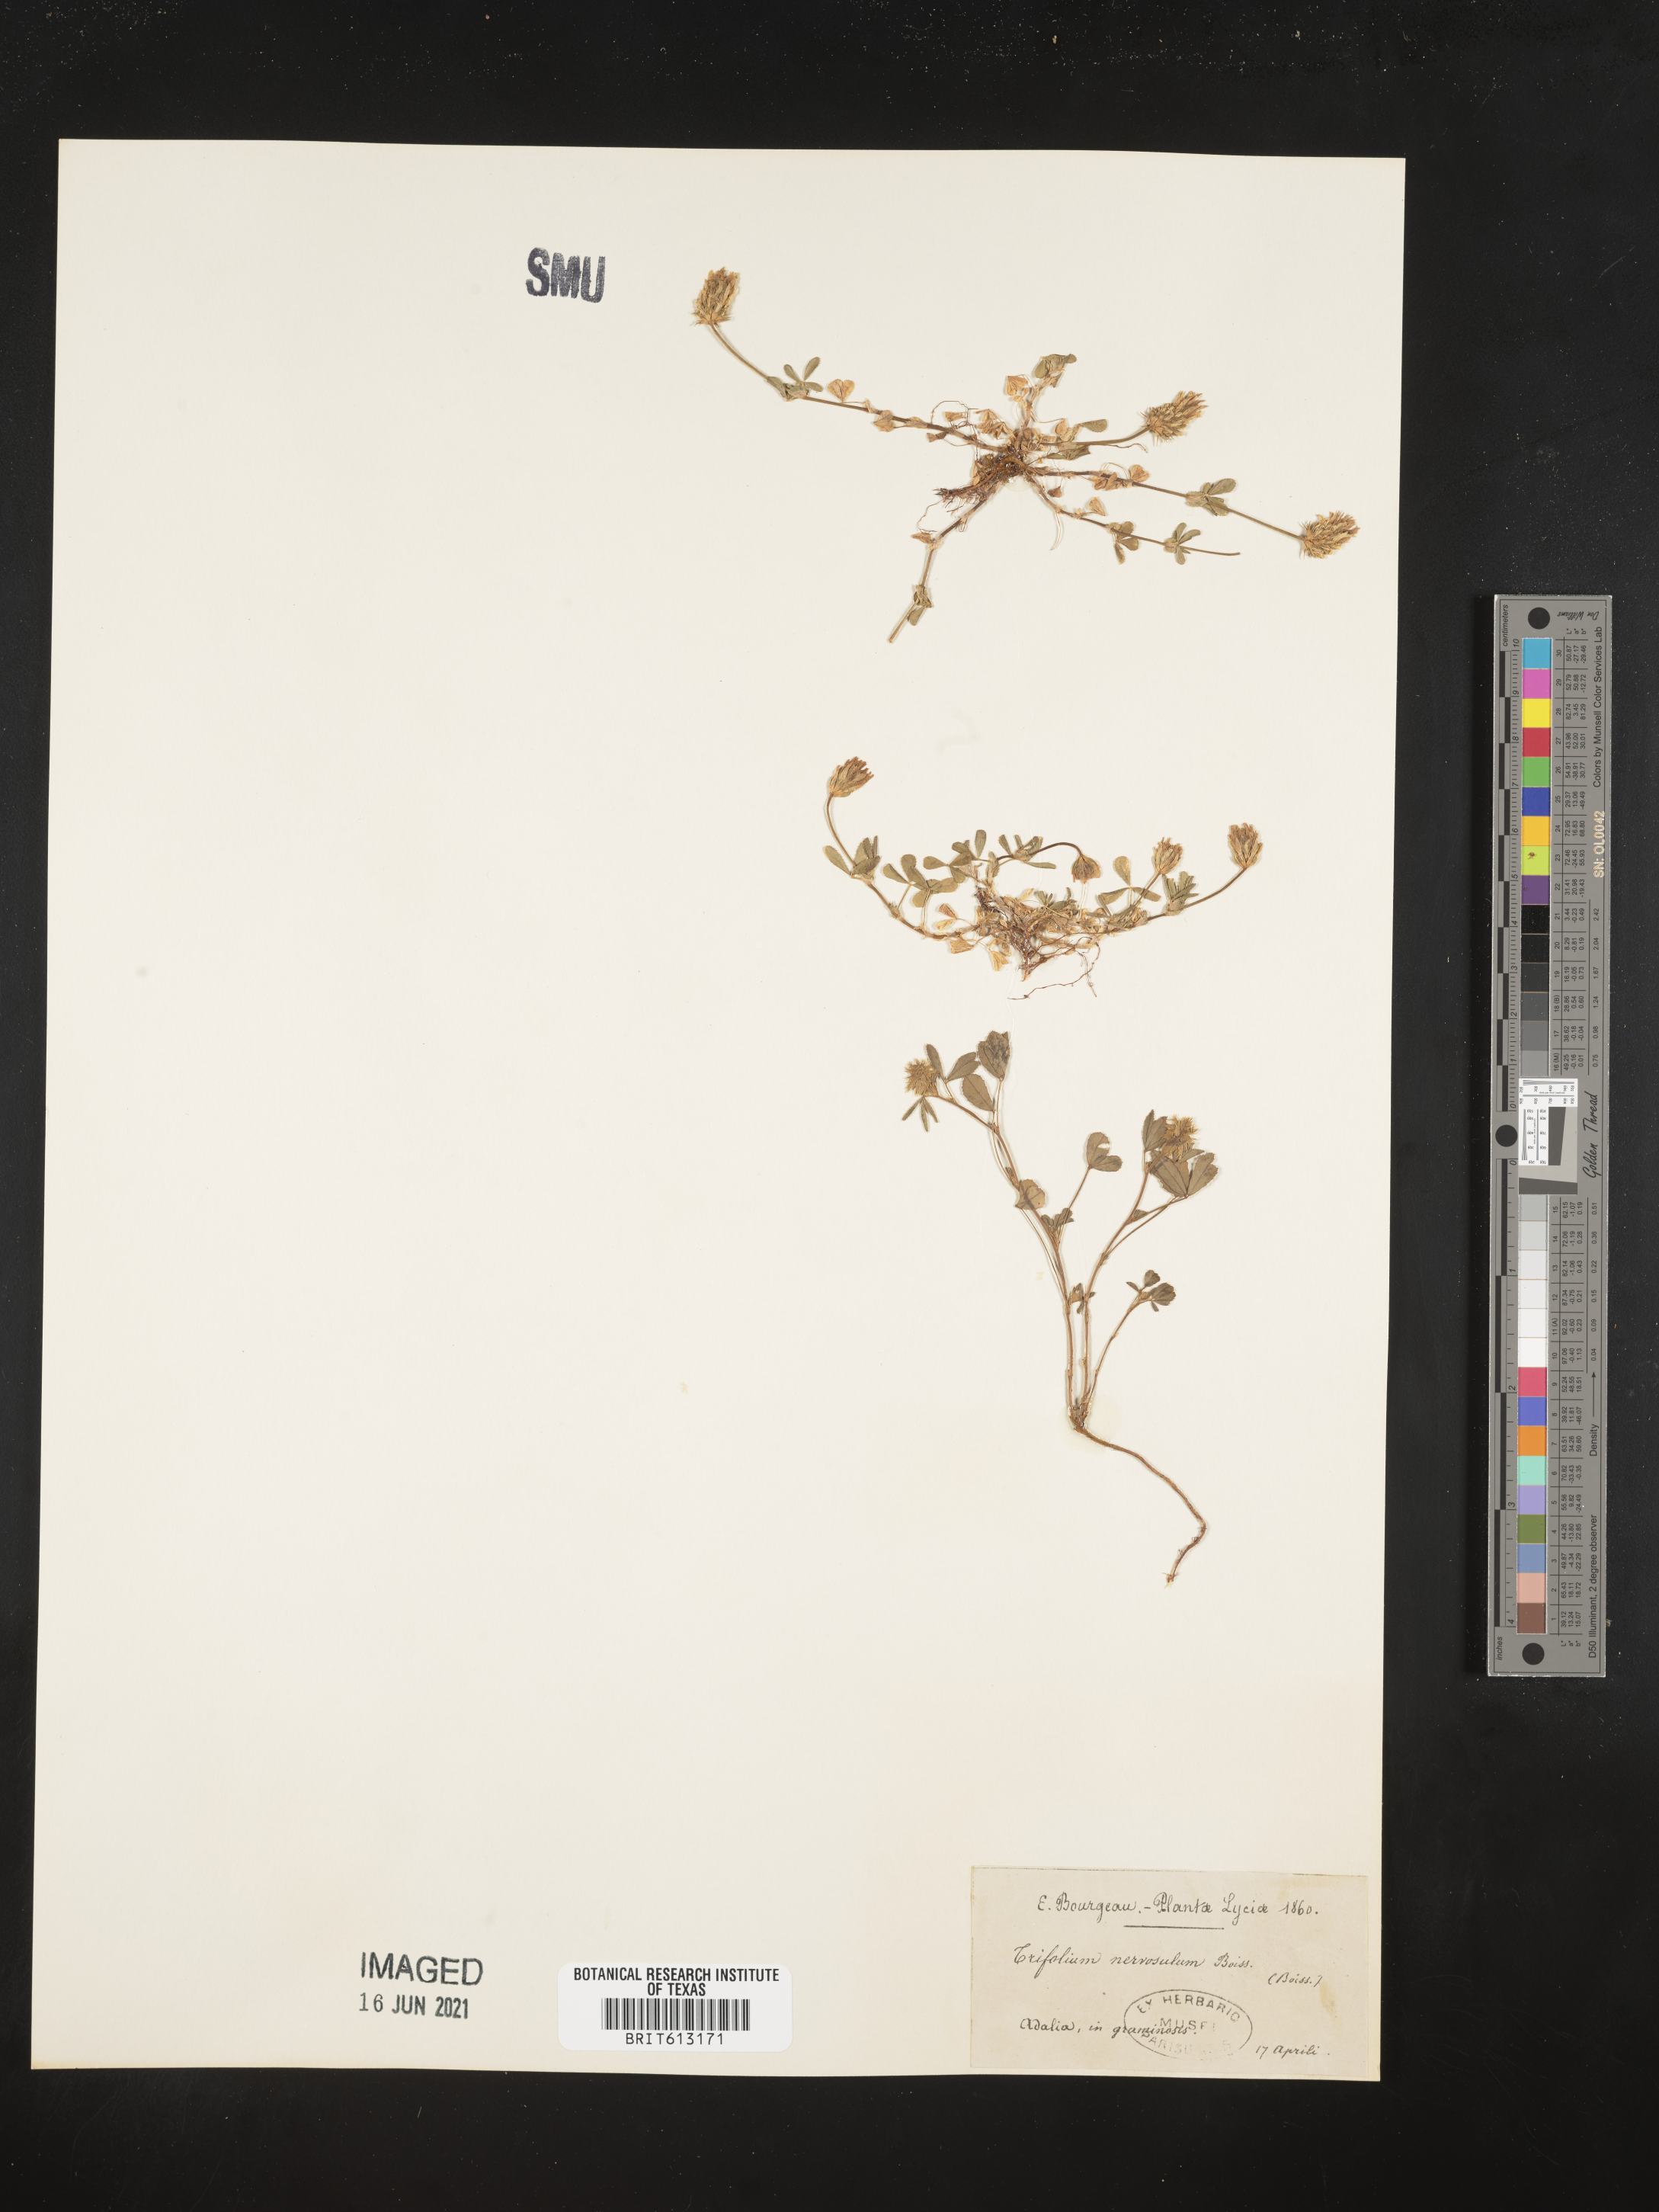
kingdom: Plantae
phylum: Tracheophyta
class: Magnoliopsida
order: Fabales
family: Fabaceae
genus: Trifolium
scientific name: Trifolium lappaceum
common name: Bur clover
